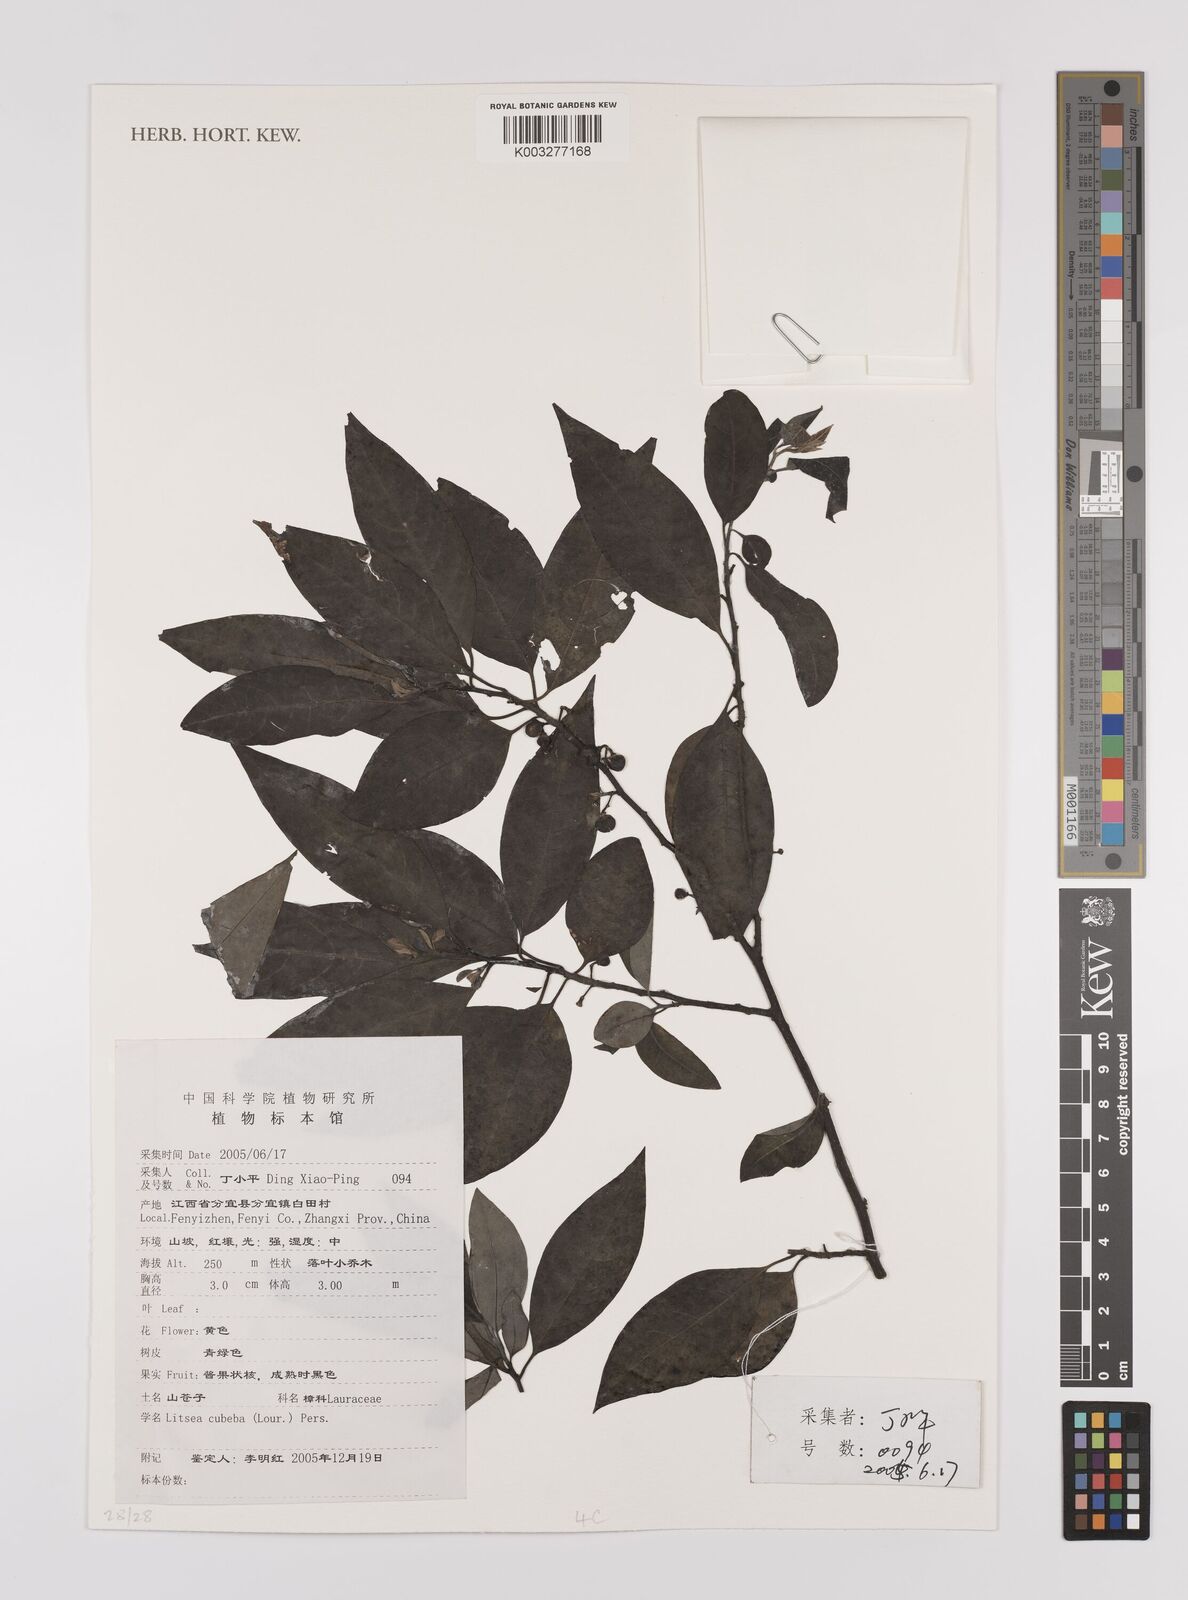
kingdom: Plantae
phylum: Tracheophyta
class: Magnoliopsida
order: Laurales
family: Lauraceae
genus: Litsea
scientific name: Litsea cubeba
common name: Mountain-pepper
